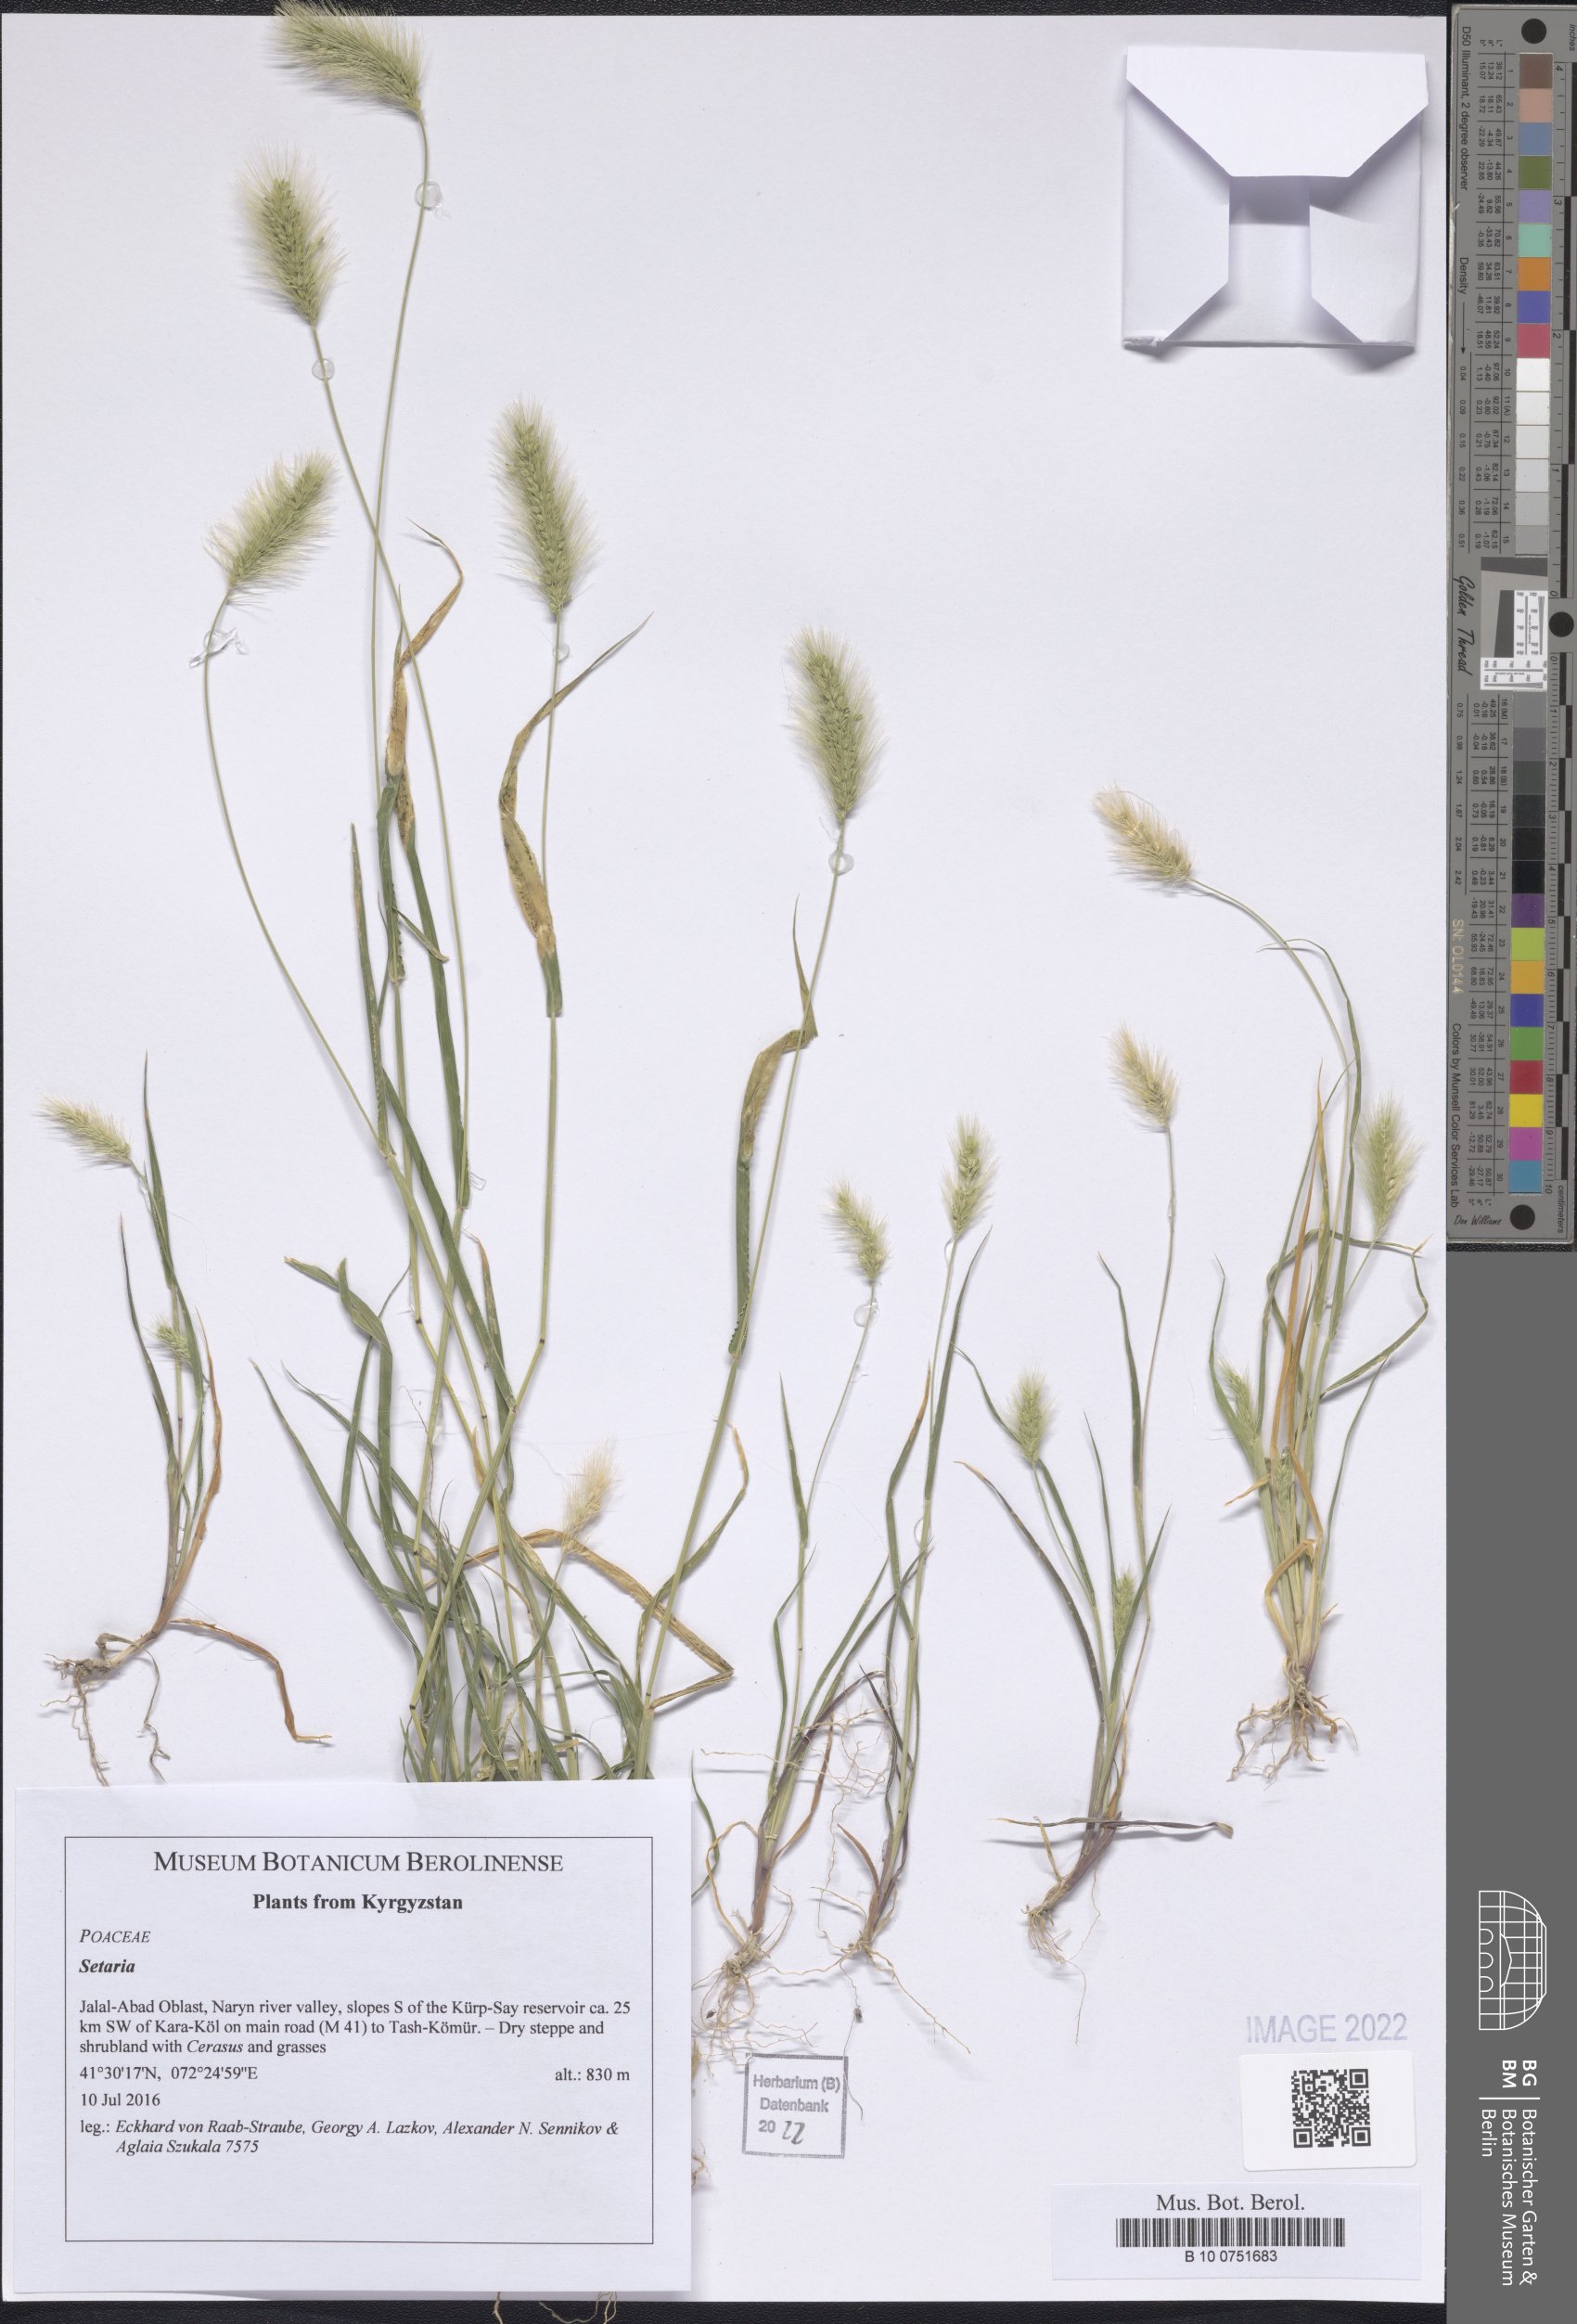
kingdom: Plantae
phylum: Tracheophyta
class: Liliopsida
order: Poales
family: Poaceae
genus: Setaria
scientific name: Setaria
